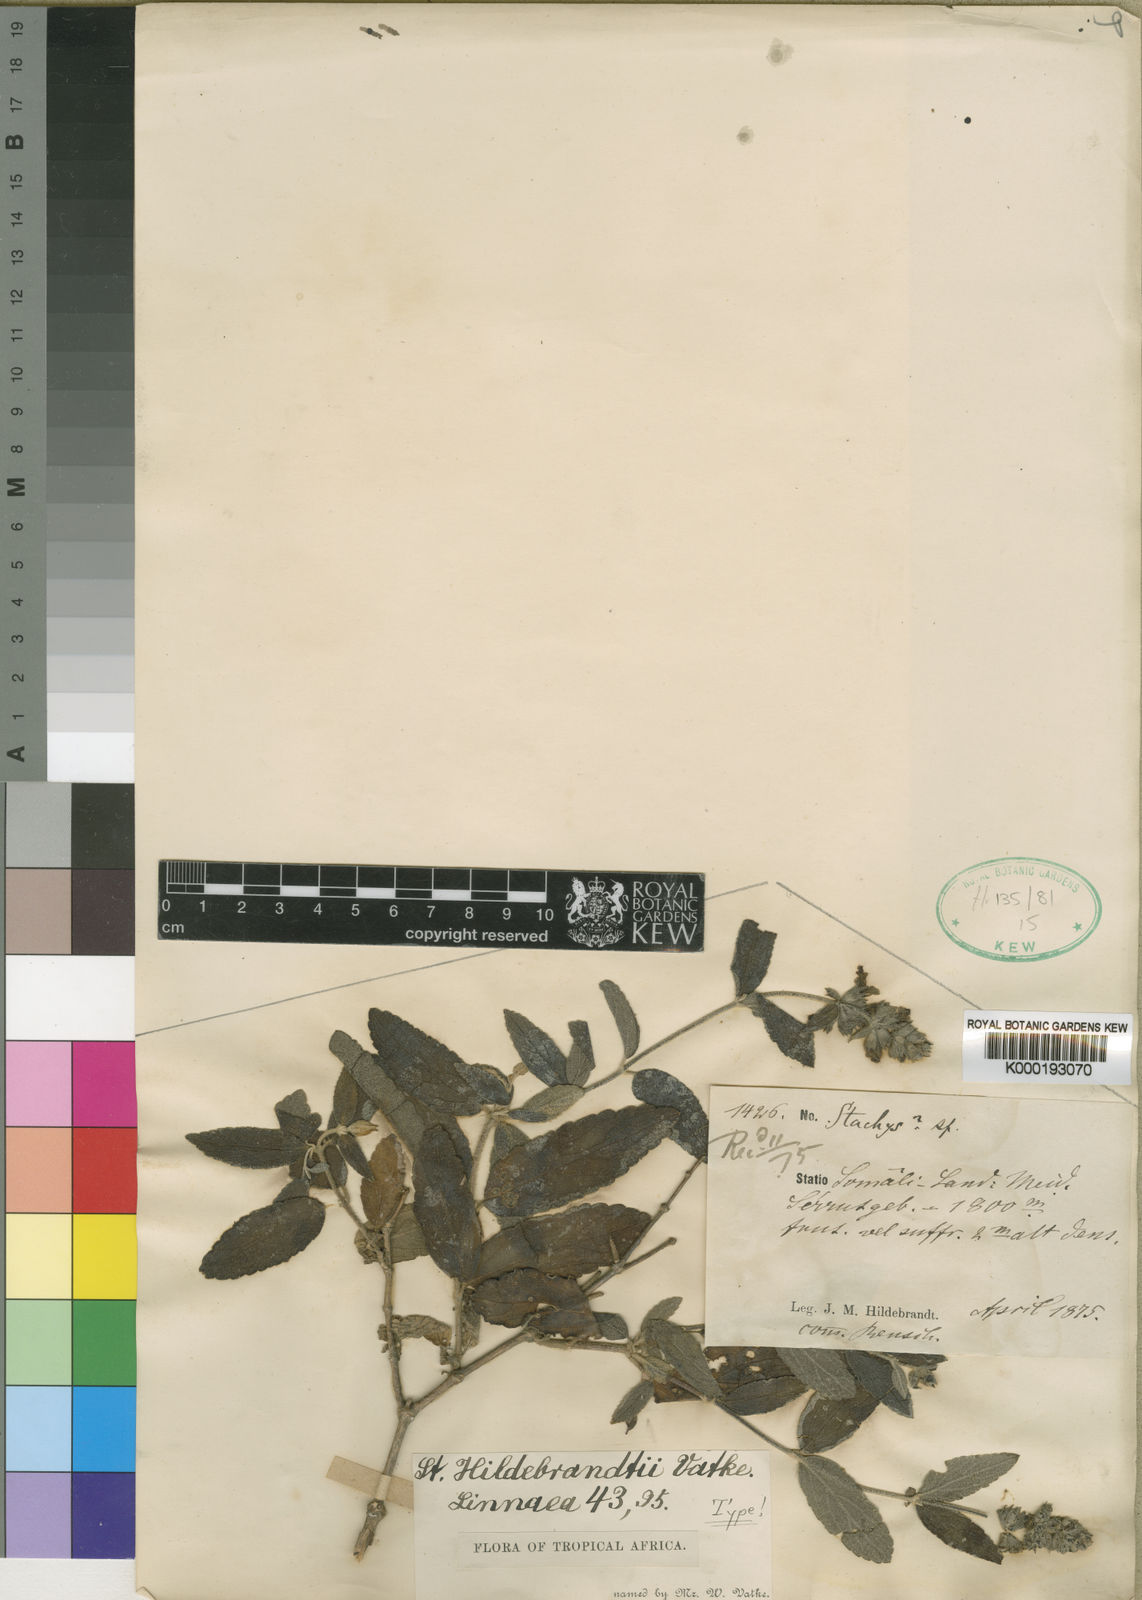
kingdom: Plantae
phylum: Tracheophyta
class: Magnoliopsida
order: Lamiales
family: Lamiaceae
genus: Stachys
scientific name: Stachys hildebrandtii
